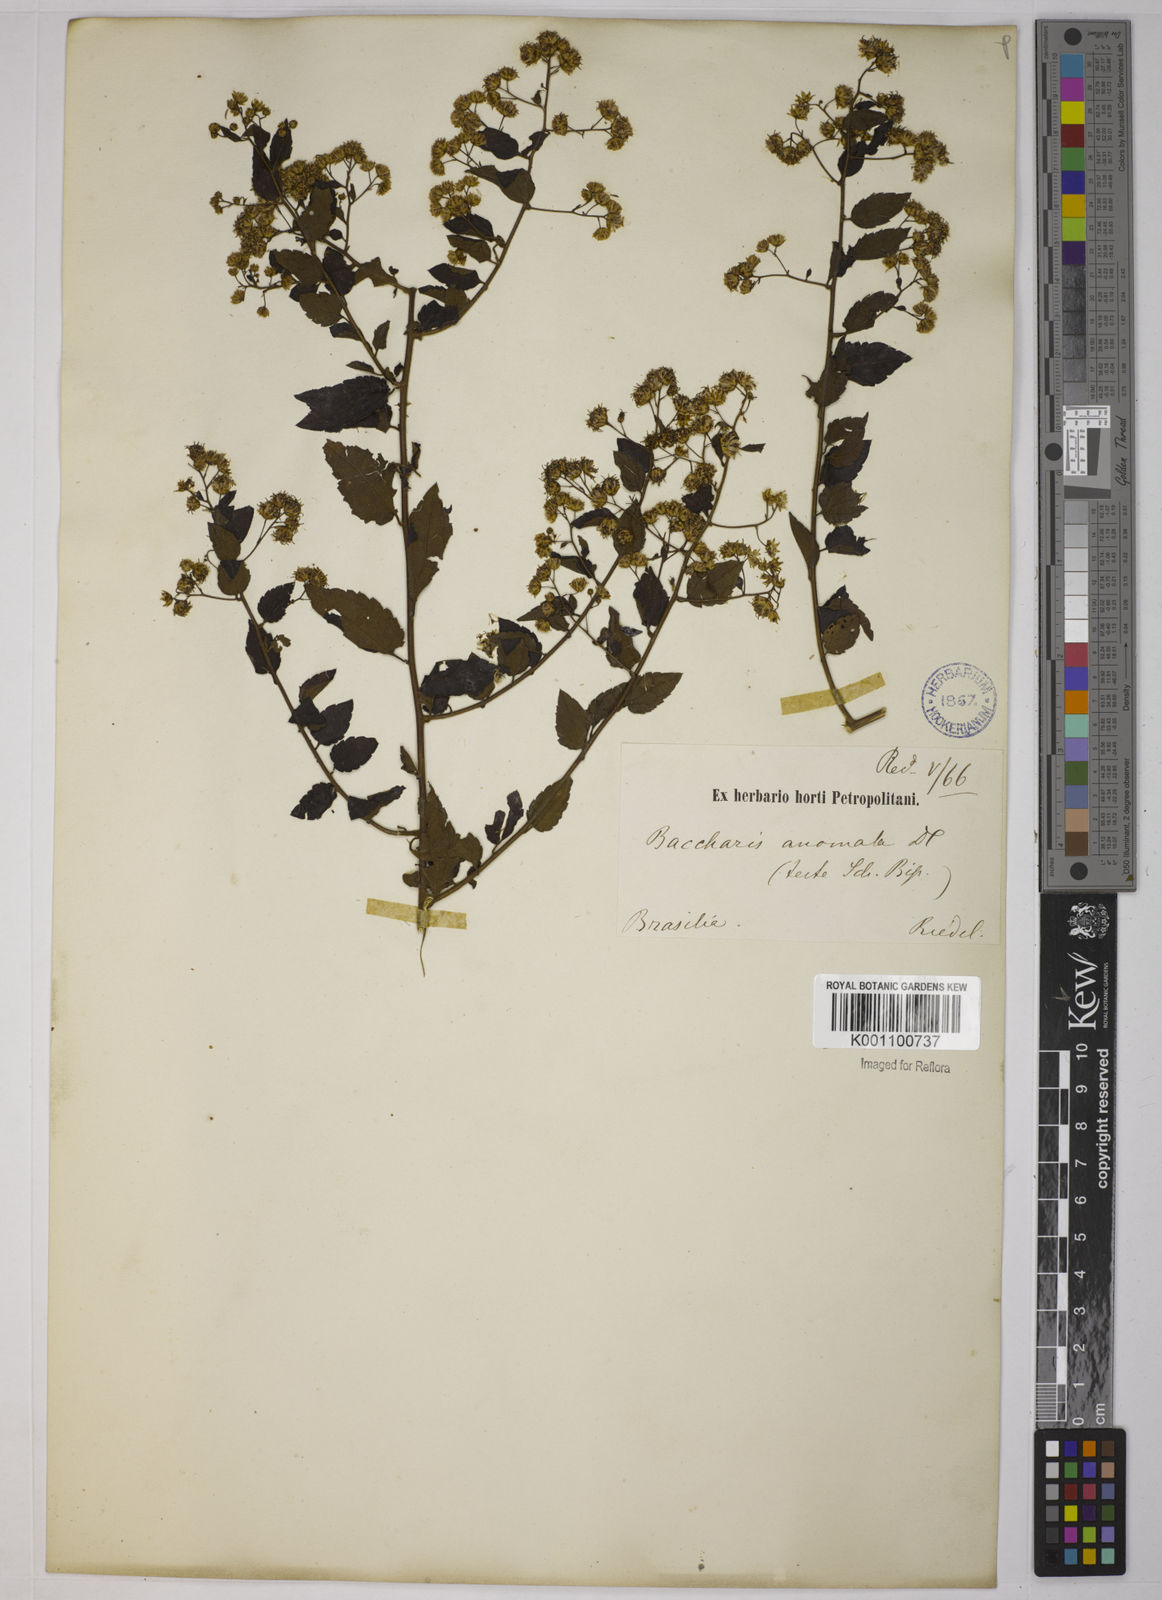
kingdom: Plantae
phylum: Tracheophyta
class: Magnoliopsida
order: Asterales
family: Asteraceae
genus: Baccharis
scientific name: Baccharis anomala
